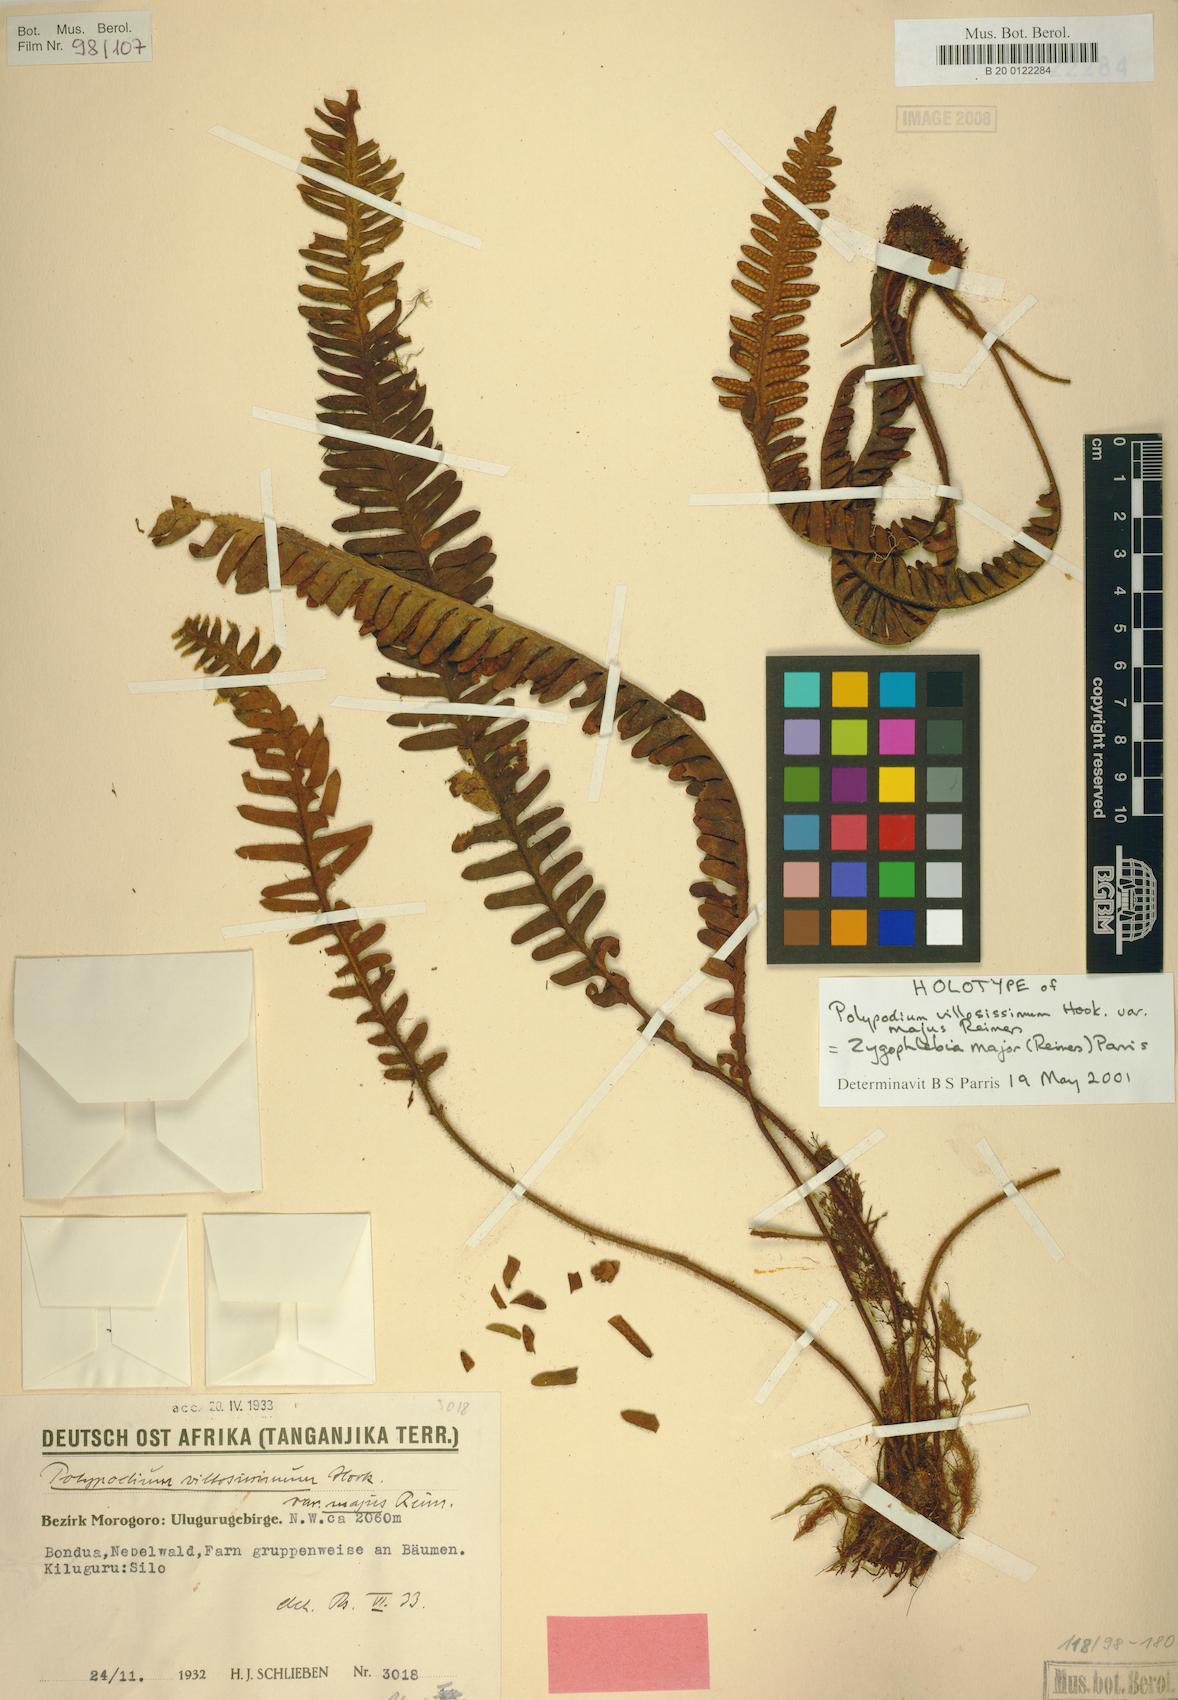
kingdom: Plantae
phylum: Tracheophyta
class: Polypodiopsida
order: Polypodiales
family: Polypodiaceae
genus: Enterosora
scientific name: Enterosora major
